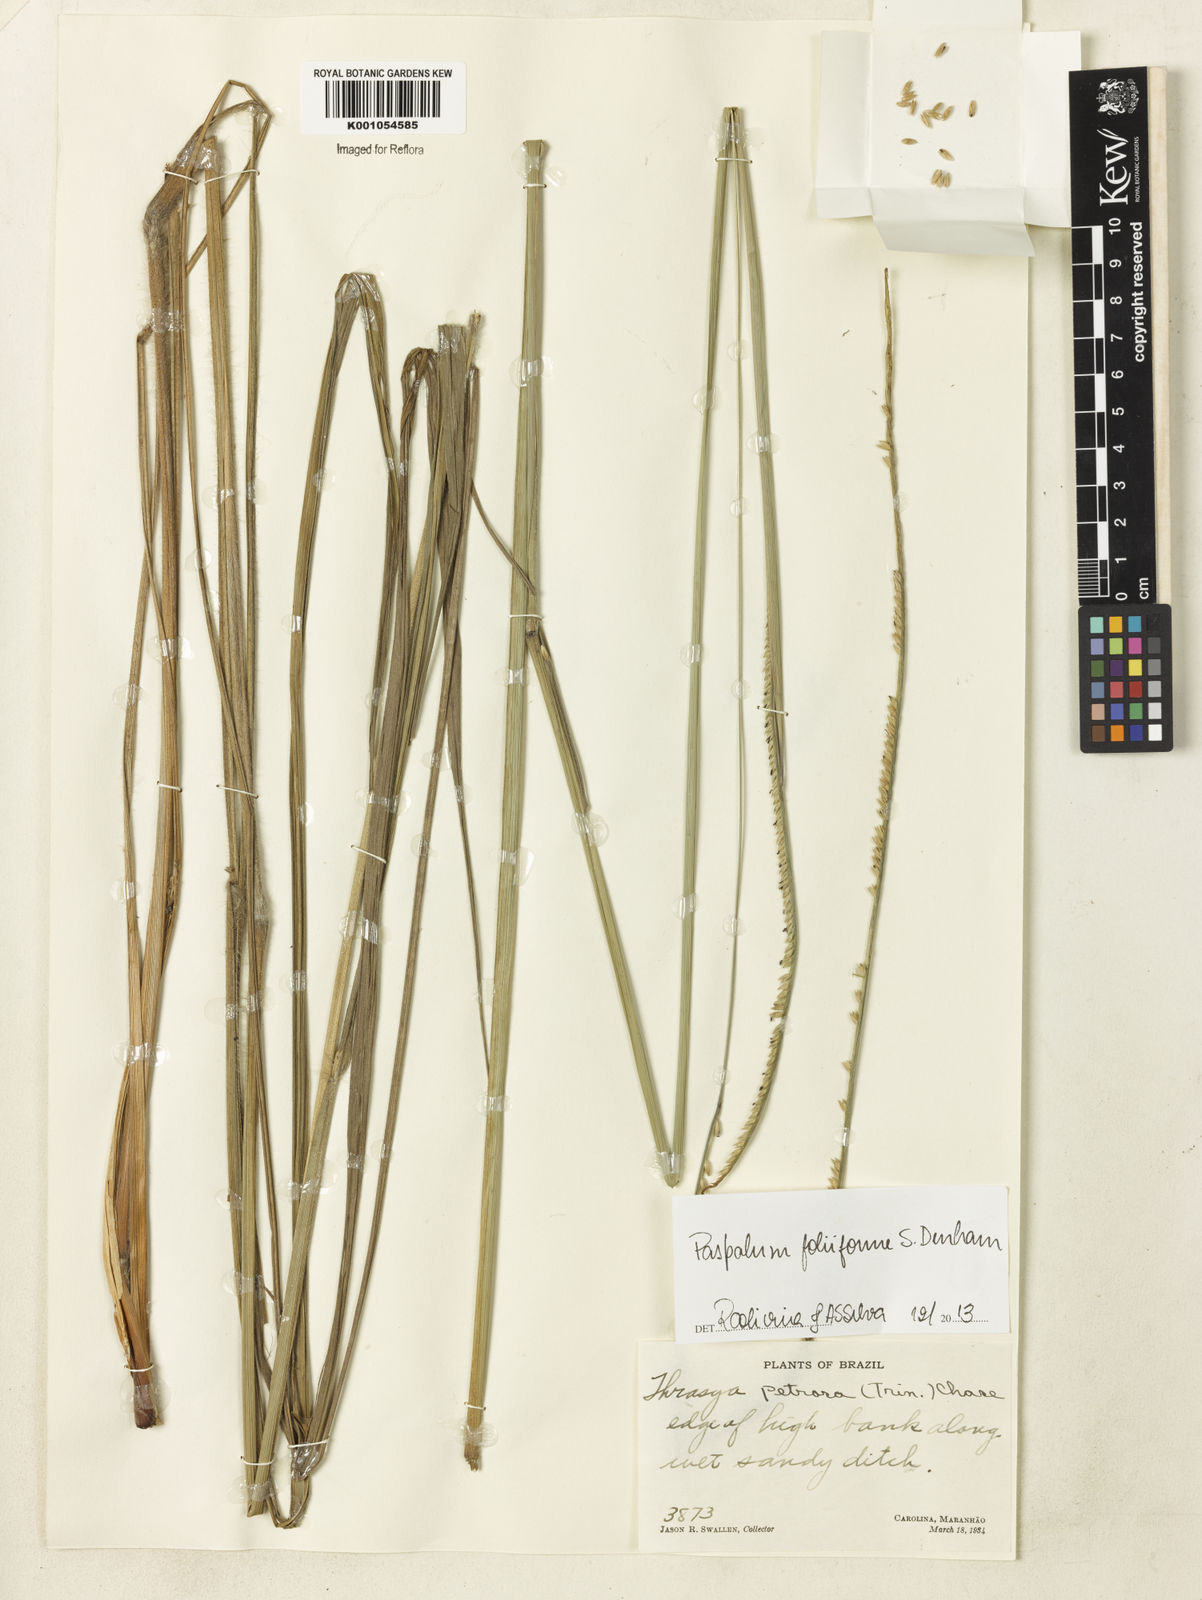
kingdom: Plantae
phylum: Tracheophyta
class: Liliopsida
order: Poales
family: Poaceae
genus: Paspalum
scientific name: Paspalum foliiforme
